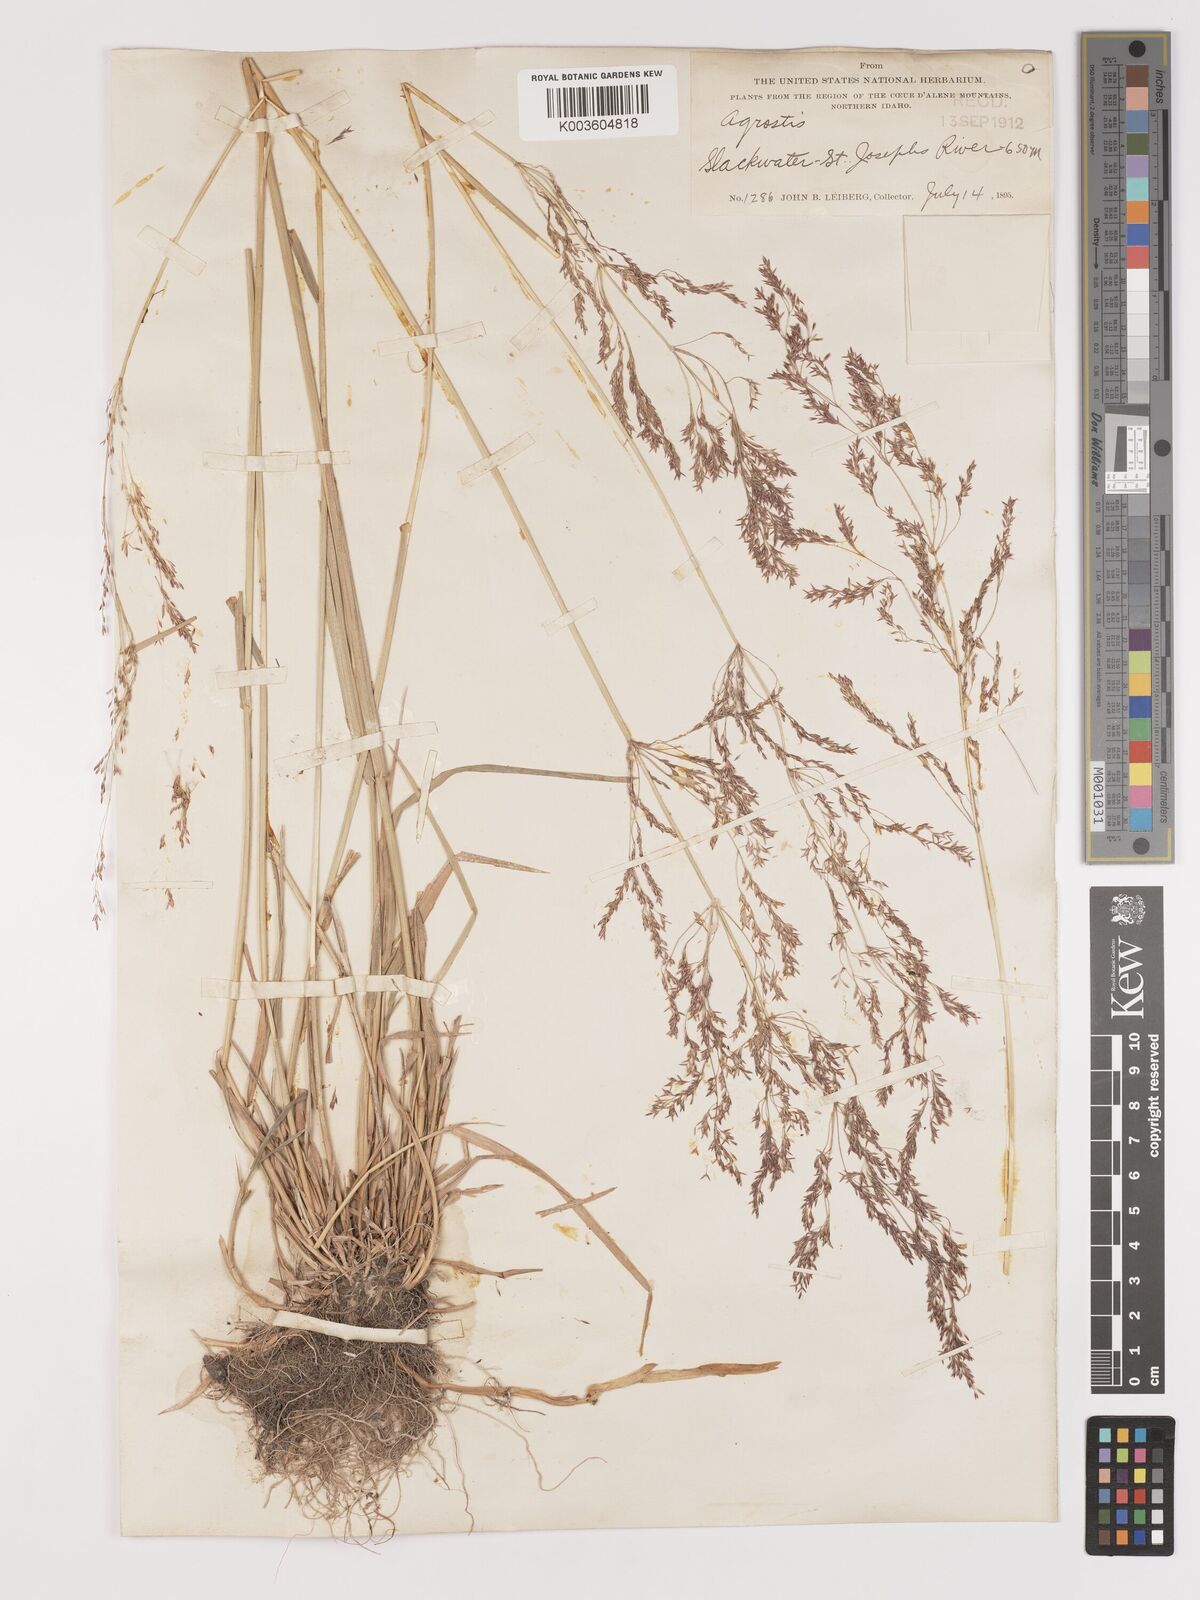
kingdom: Plantae
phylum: Tracheophyta
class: Liliopsida
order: Poales
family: Poaceae
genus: Agrostis
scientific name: Agrostis
